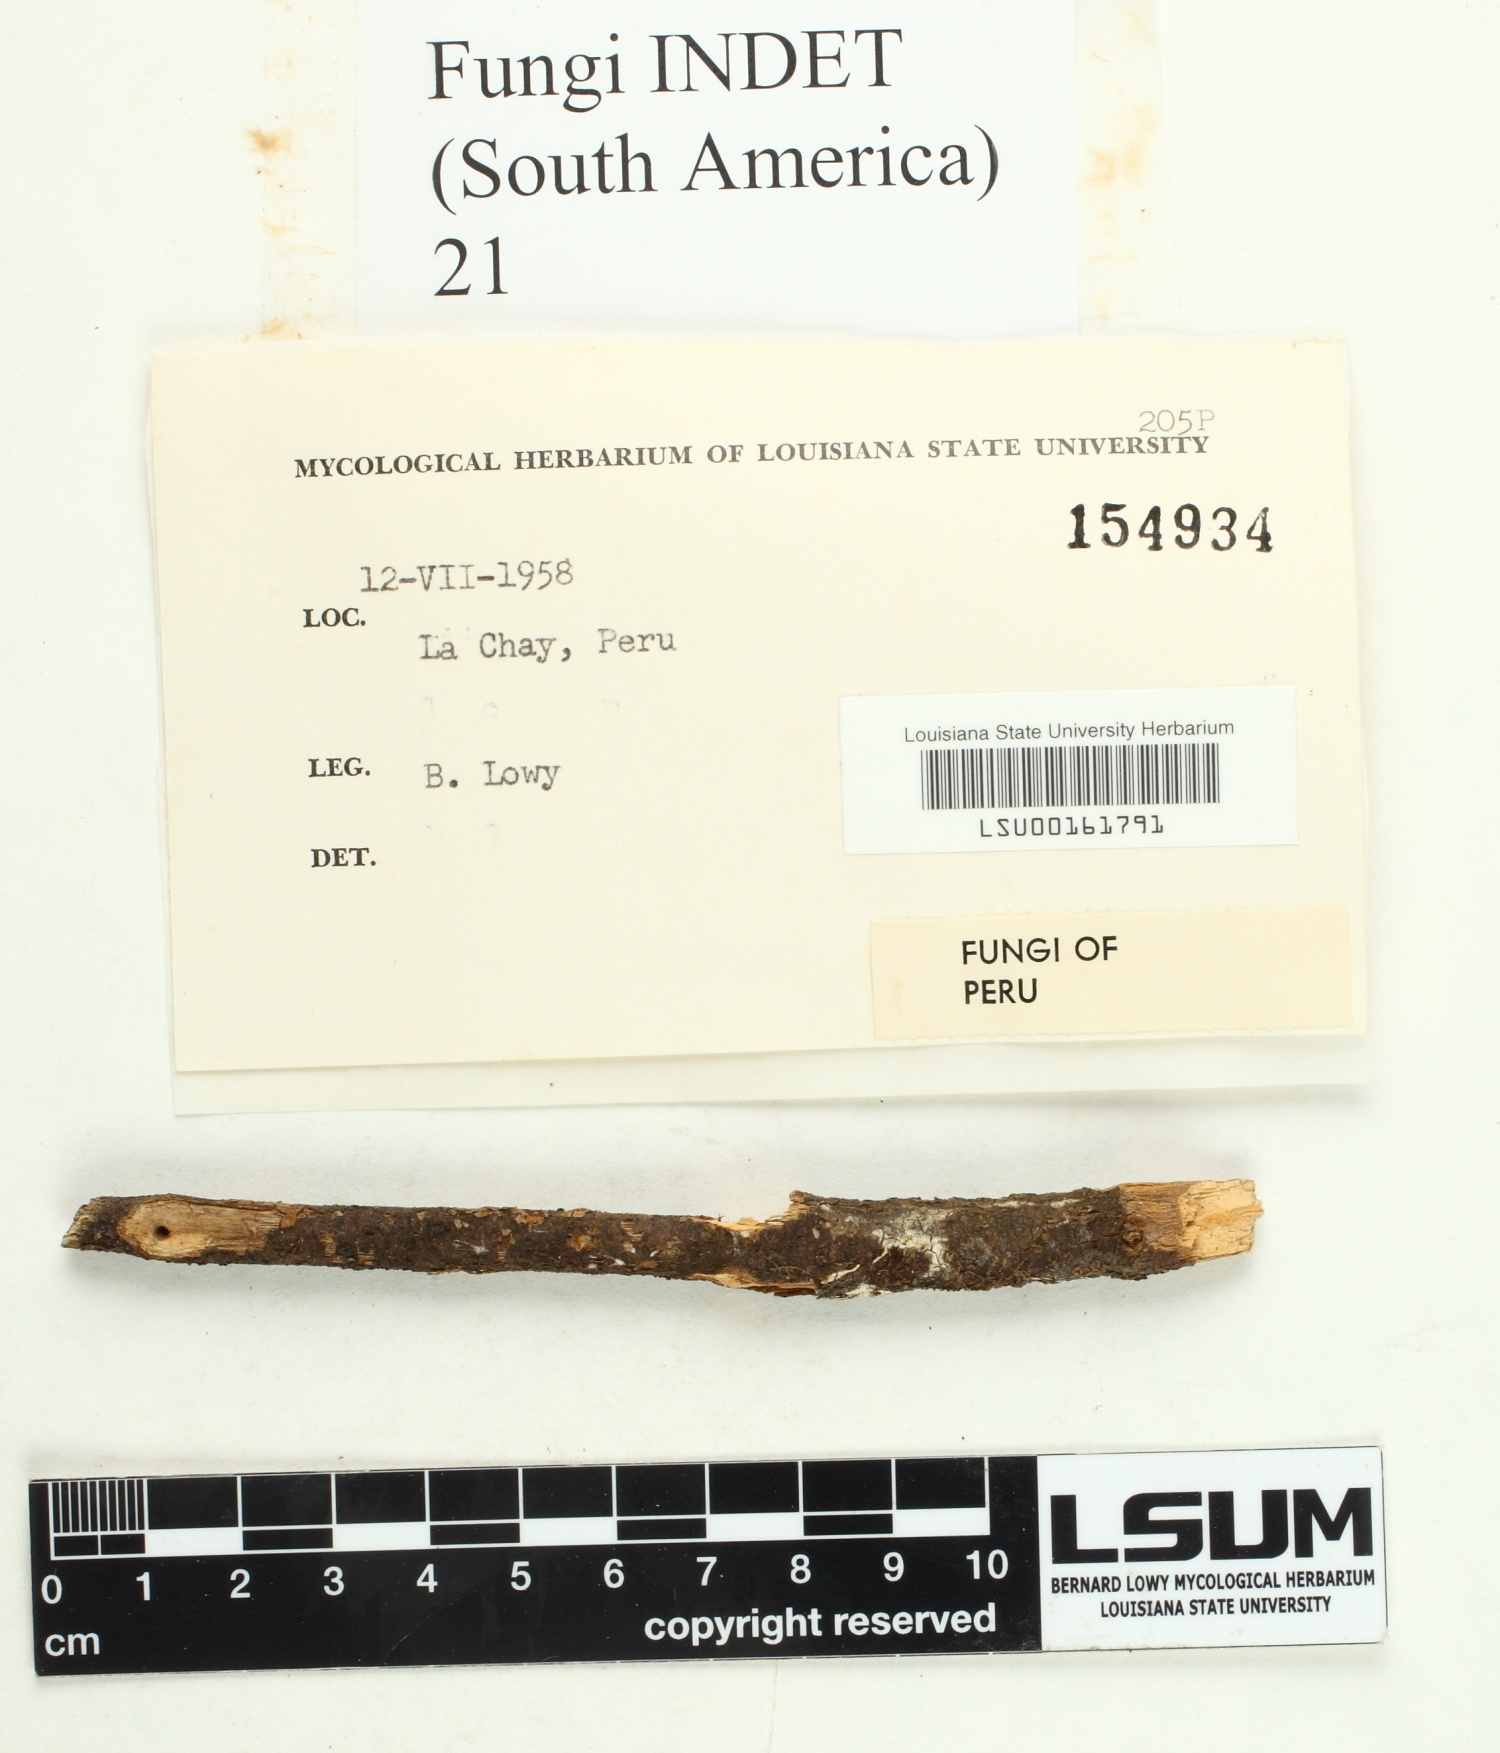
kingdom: Fungi
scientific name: Fungi
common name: Fungi
